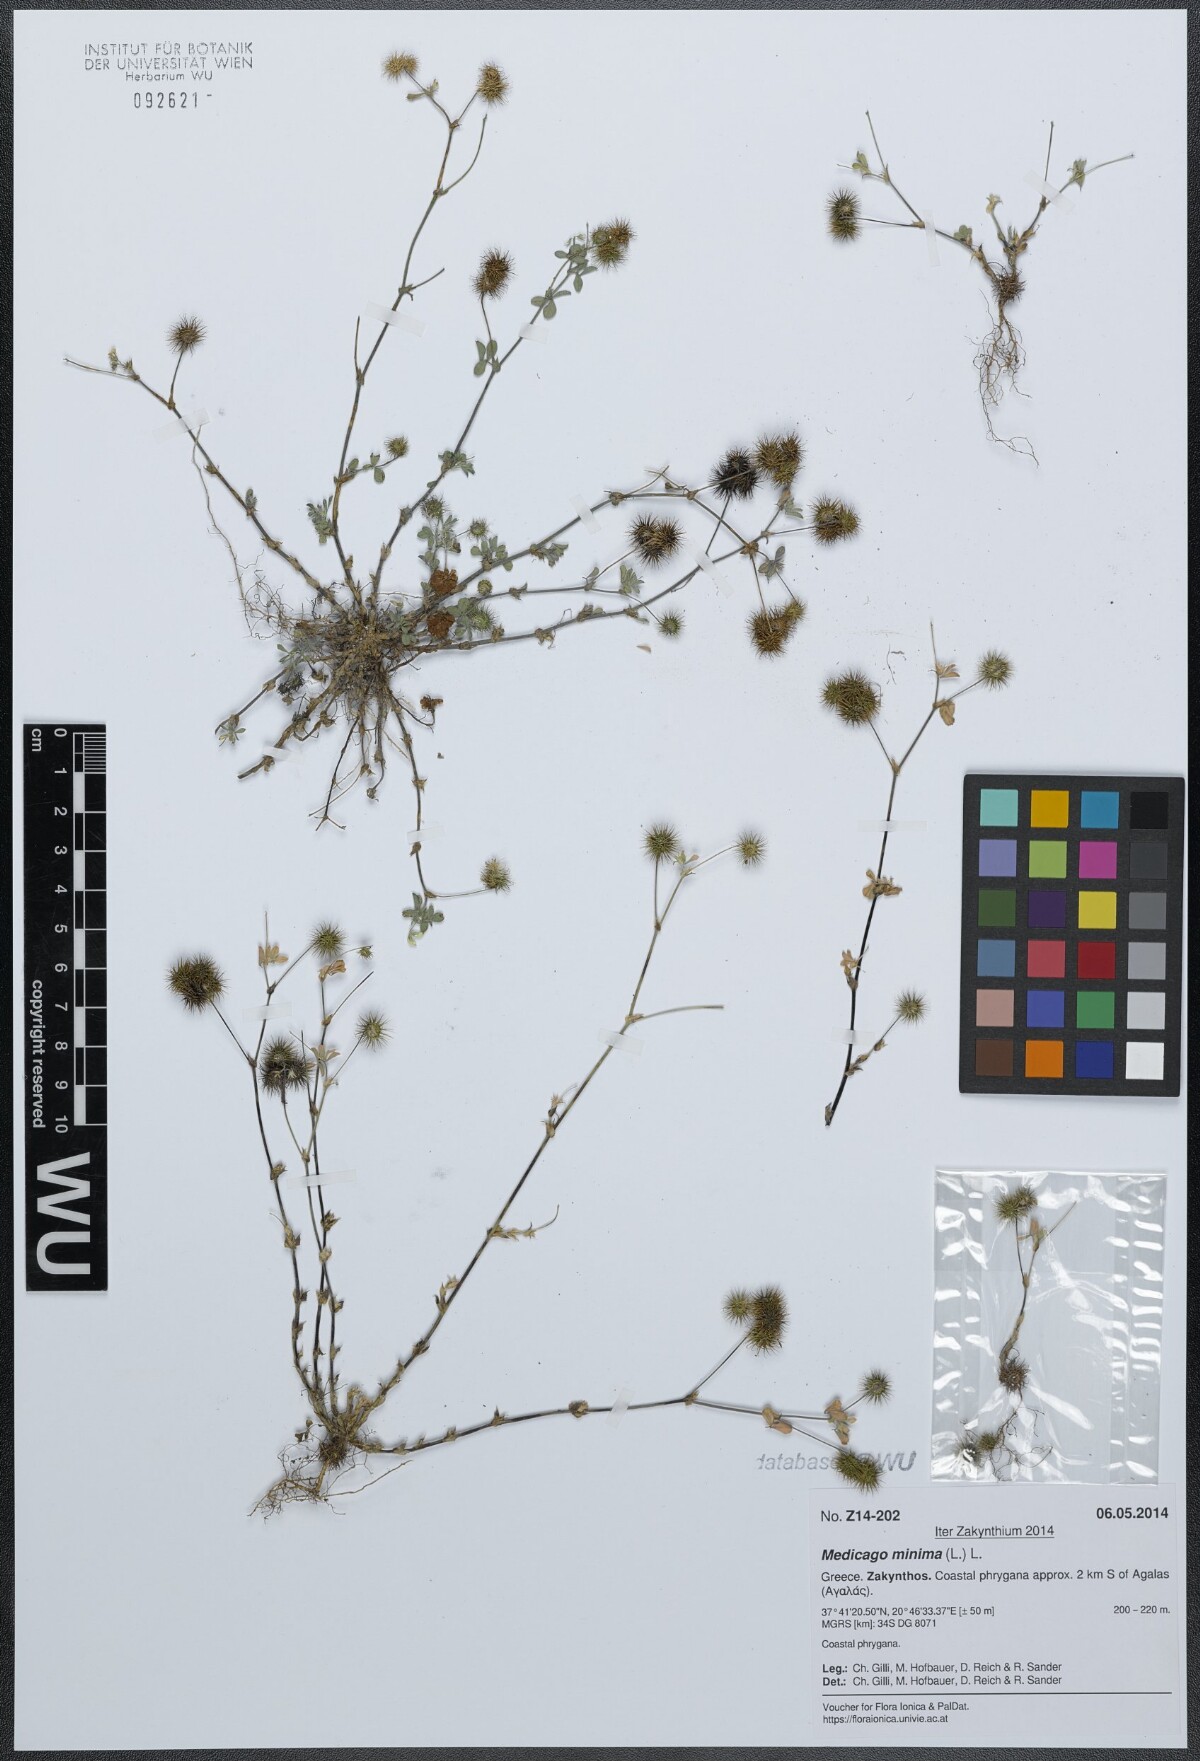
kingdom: Plantae
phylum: Tracheophyta
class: Magnoliopsida
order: Fabales
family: Fabaceae
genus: Medicago
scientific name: Medicago minima
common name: Little bur-clover
